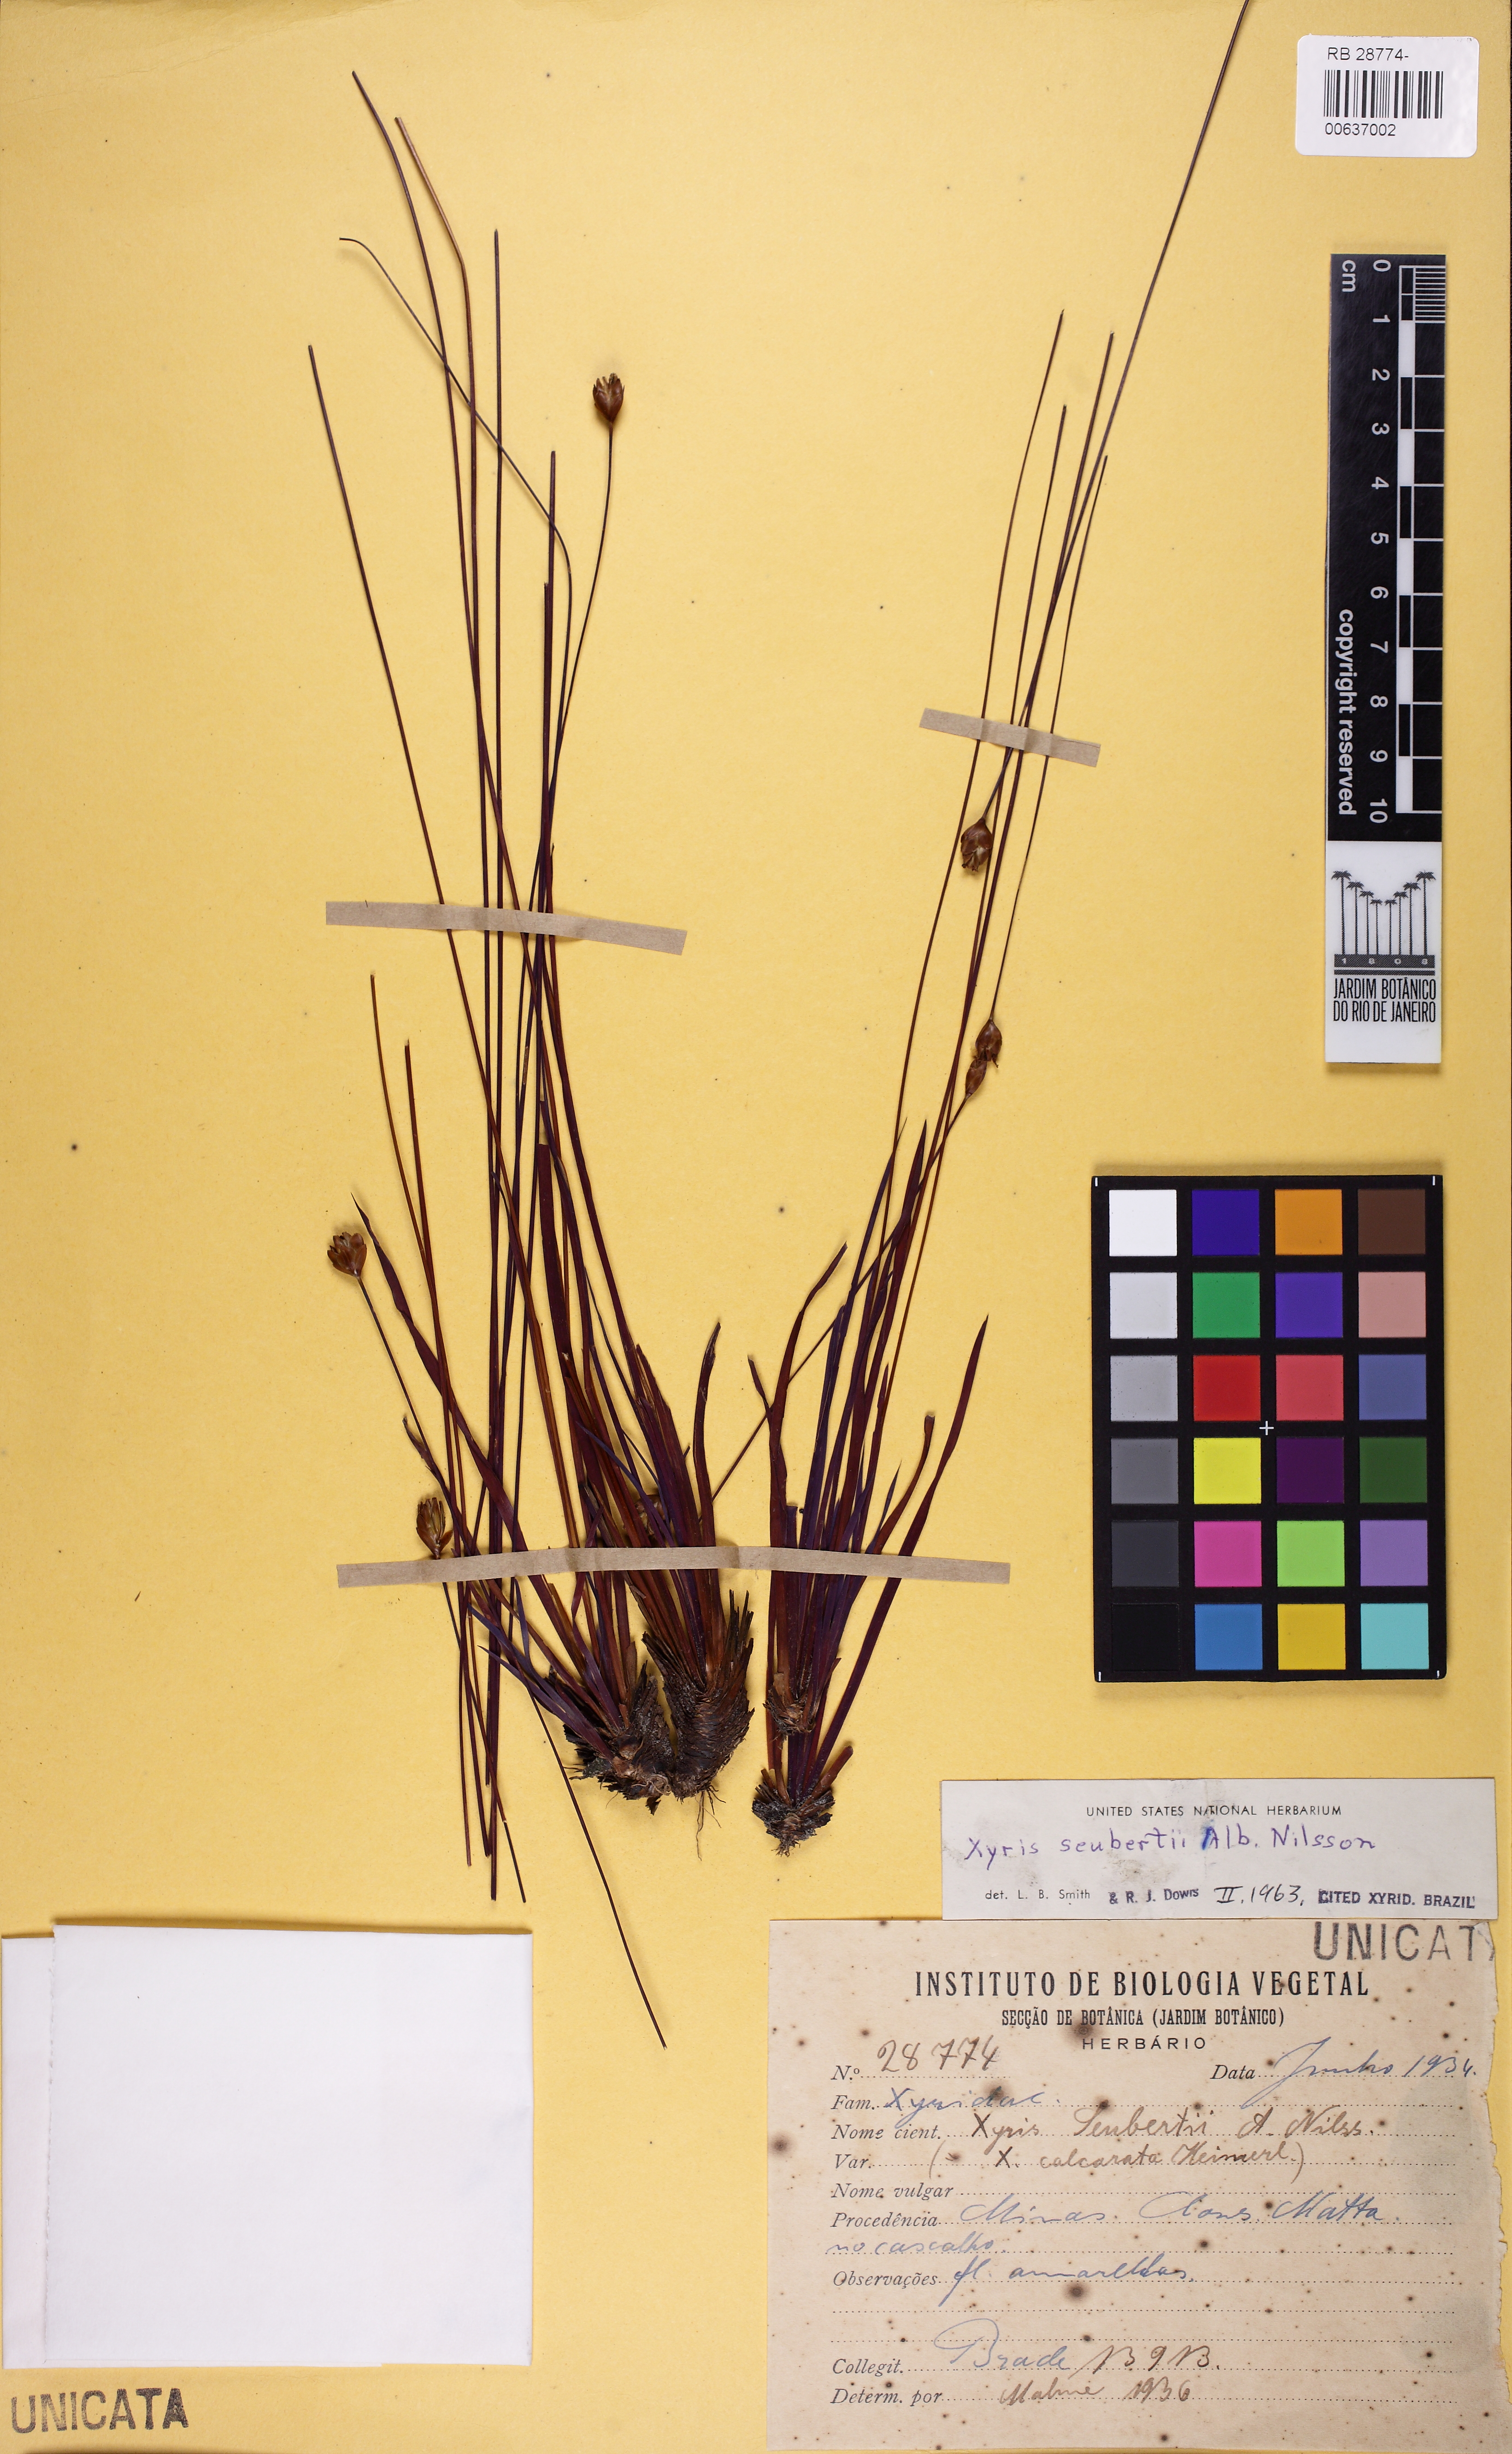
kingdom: Plantae
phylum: Tracheophyta
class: Liliopsida
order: Poales
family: Xyridaceae
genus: Xyris
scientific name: Xyris seubertii
